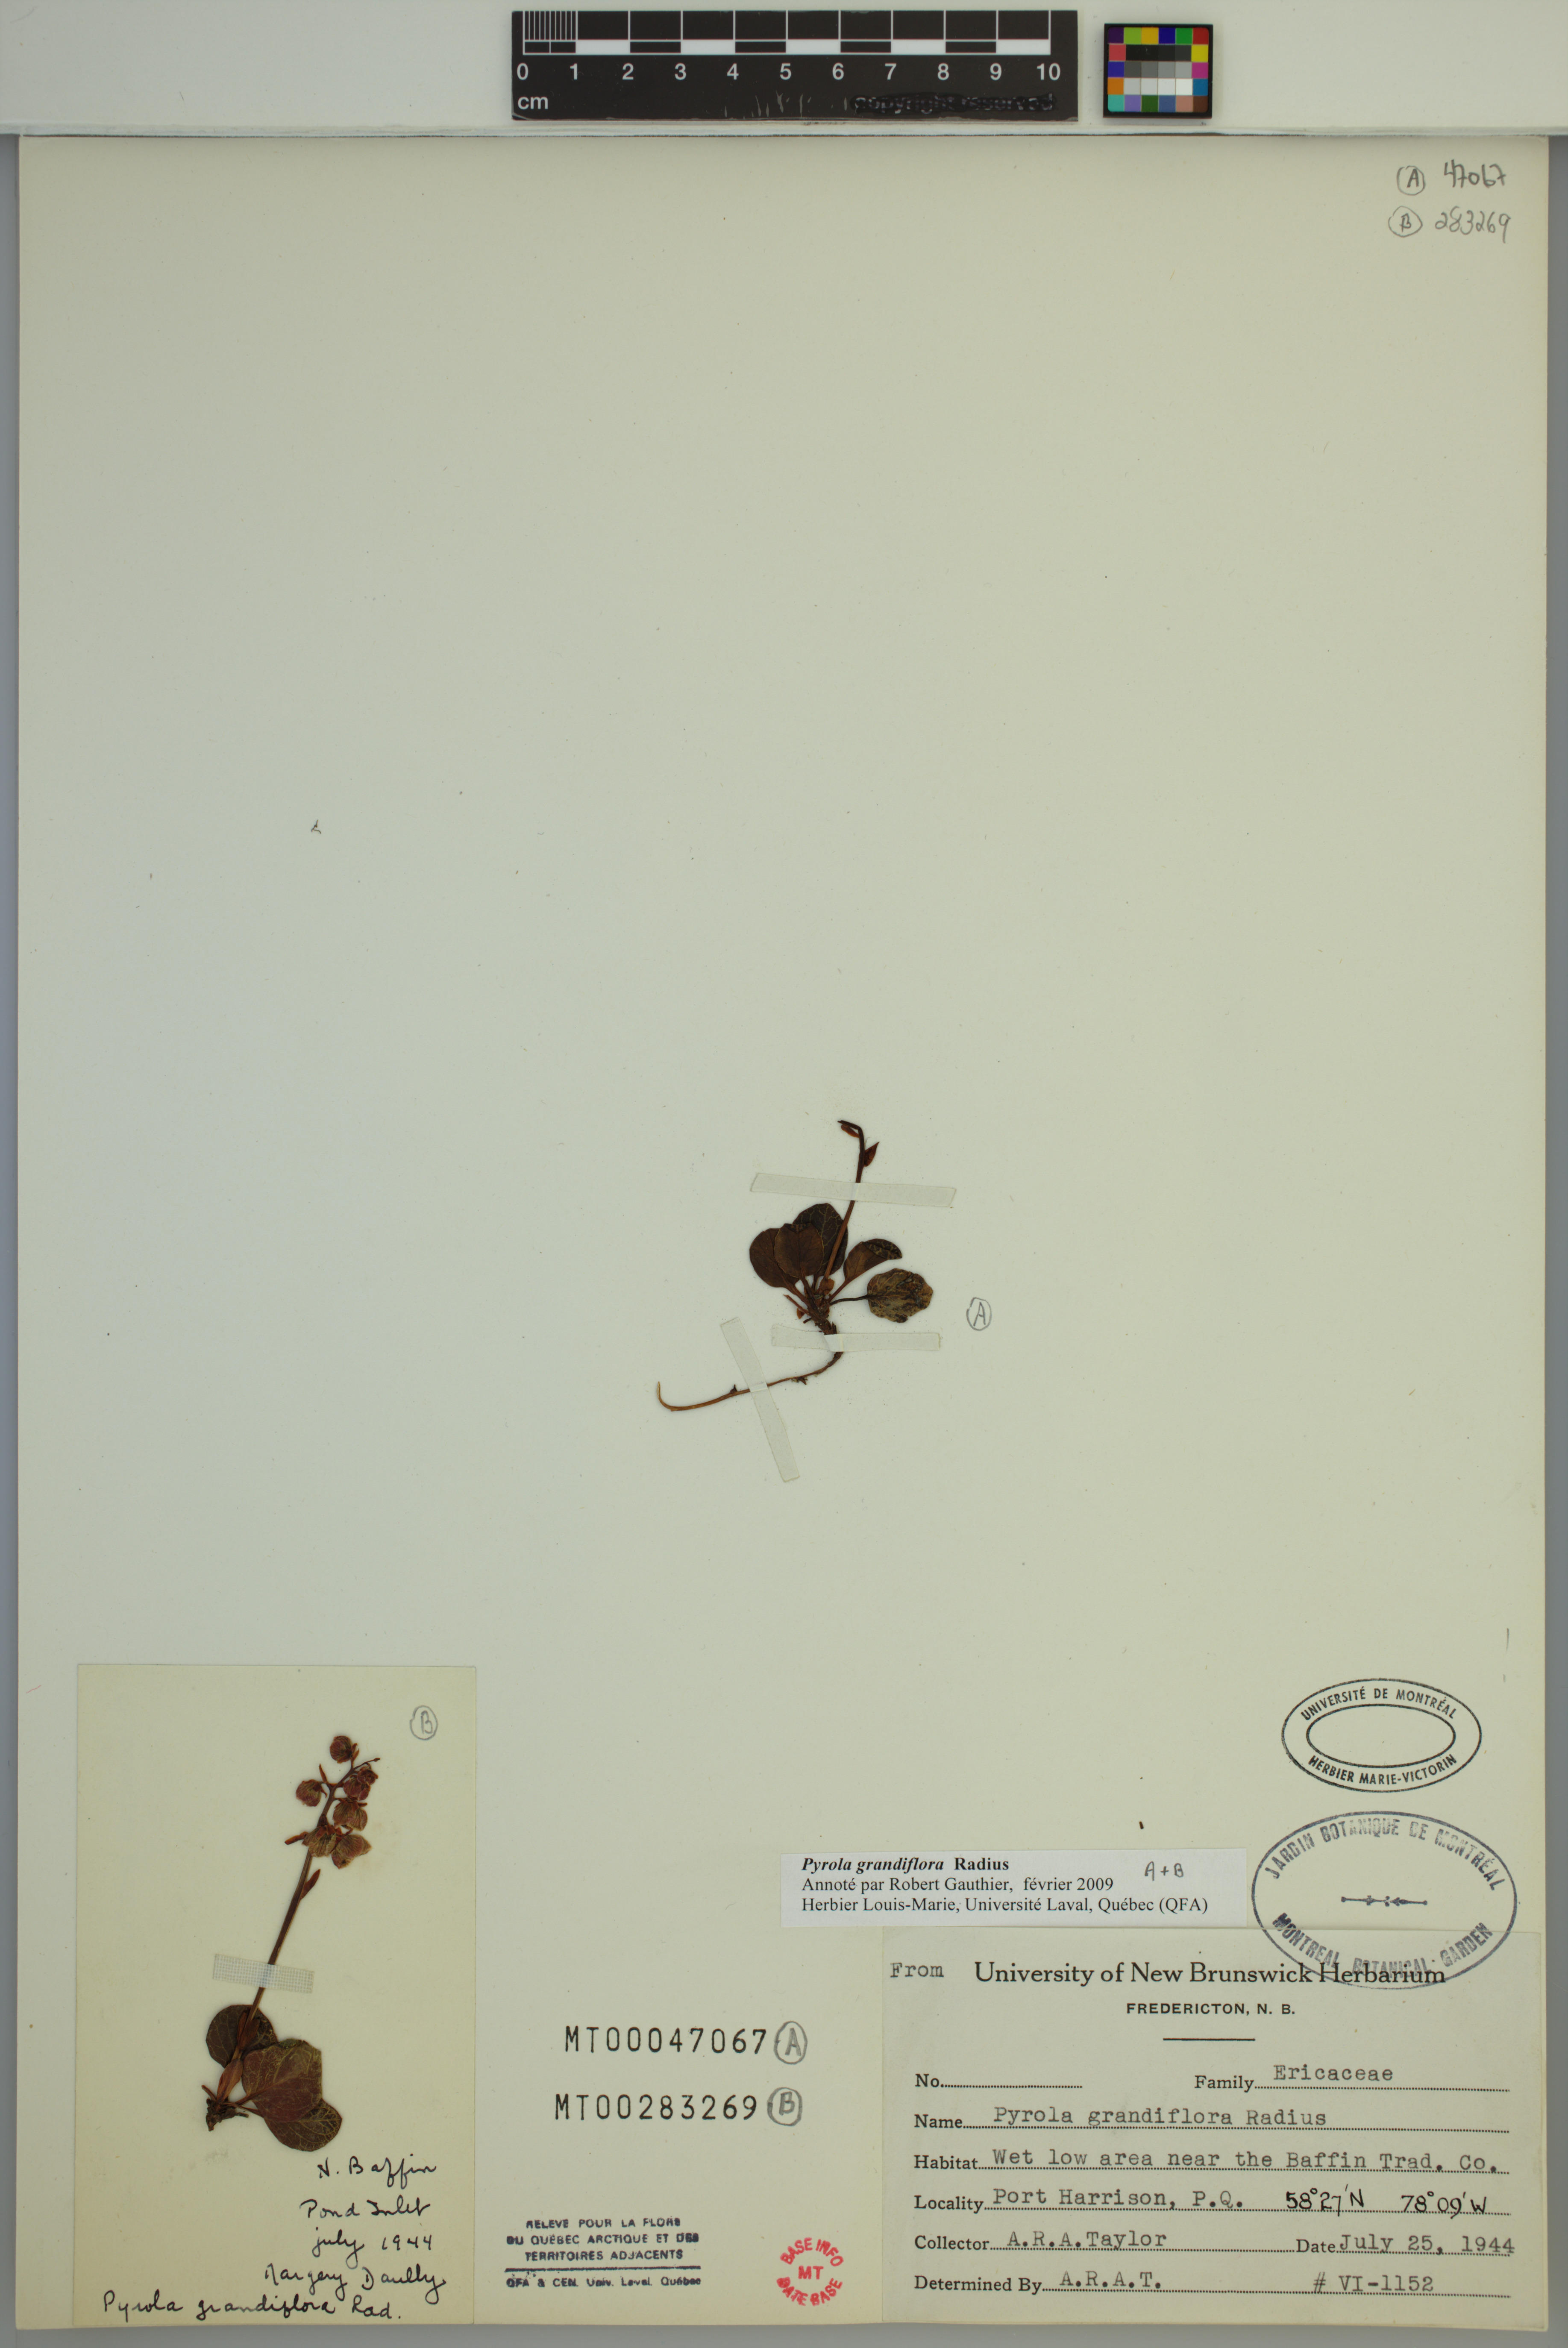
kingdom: Plantae
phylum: Tracheophyta
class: Magnoliopsida
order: Ericales
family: Ericaceae
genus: Pyrola
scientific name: Pyrola grandiflora
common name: Arctic pyrola
